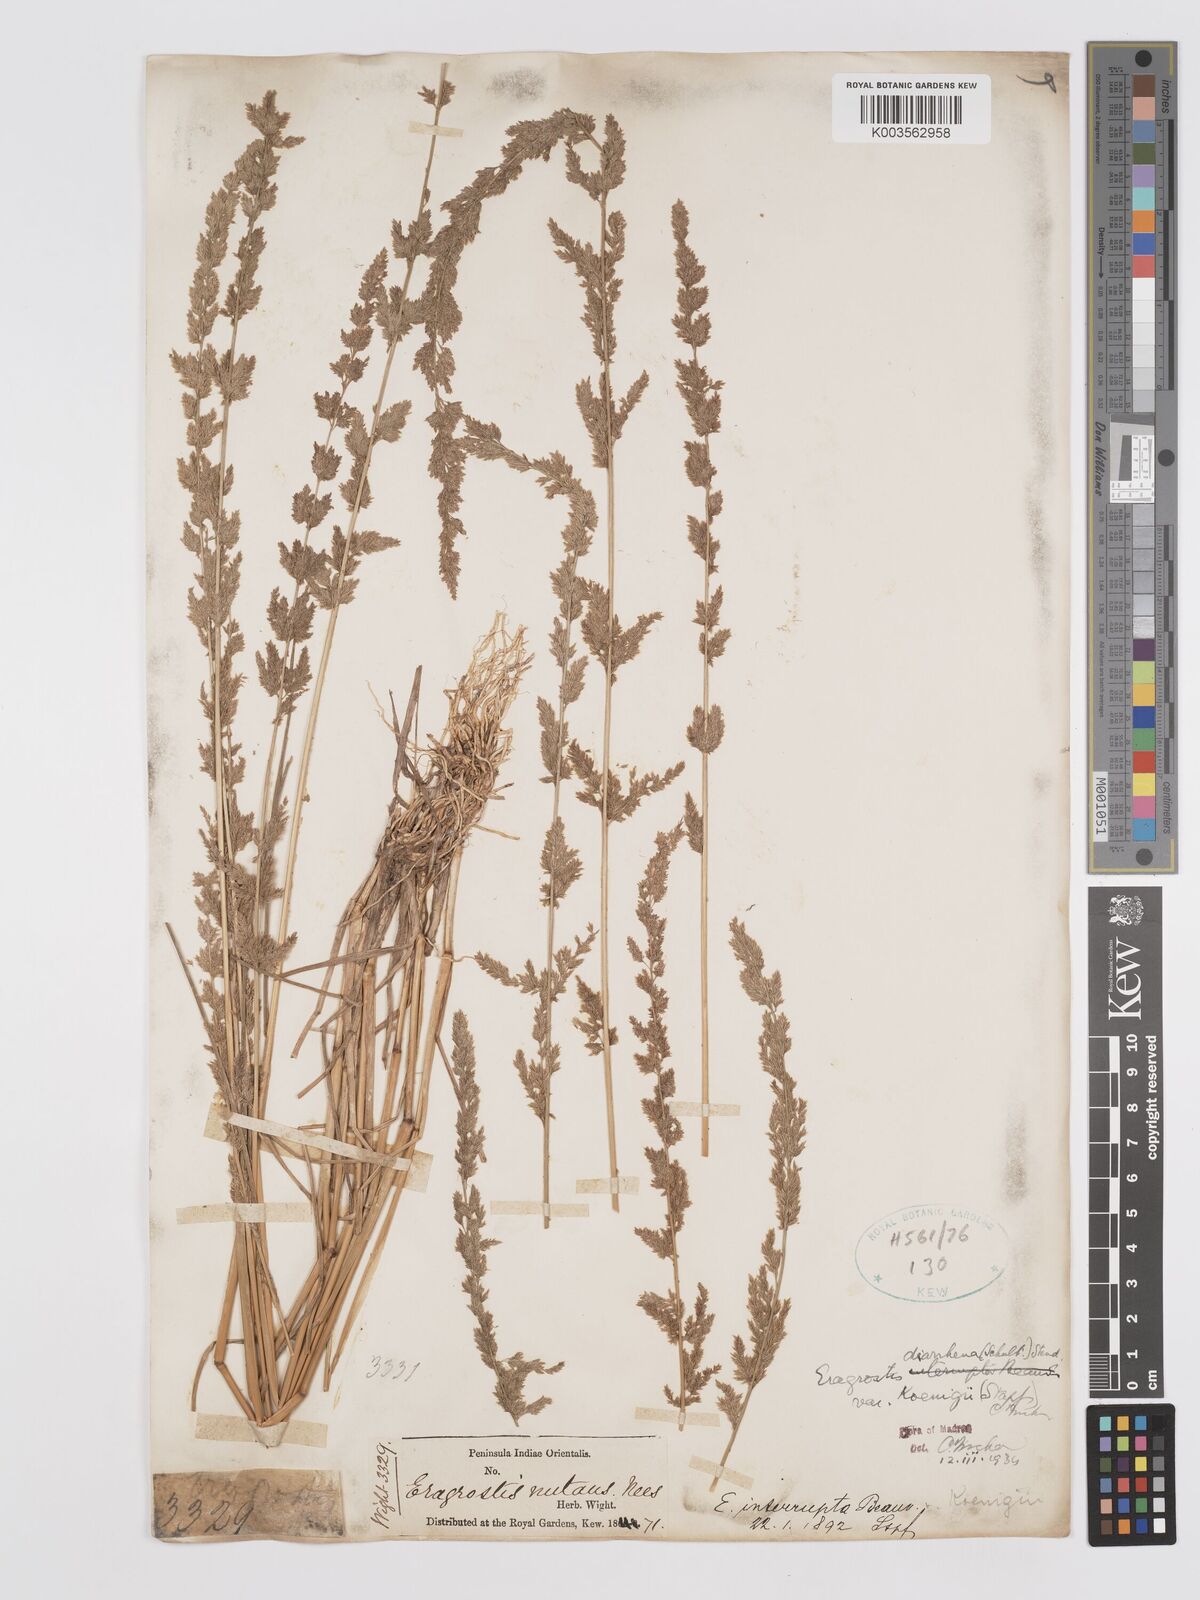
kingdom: Plantae
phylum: Tracheophyta
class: Liliopsida
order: Poales
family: Poaceae
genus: Eragrostis
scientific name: Eragrostis japonica
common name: Pond lovegrass
